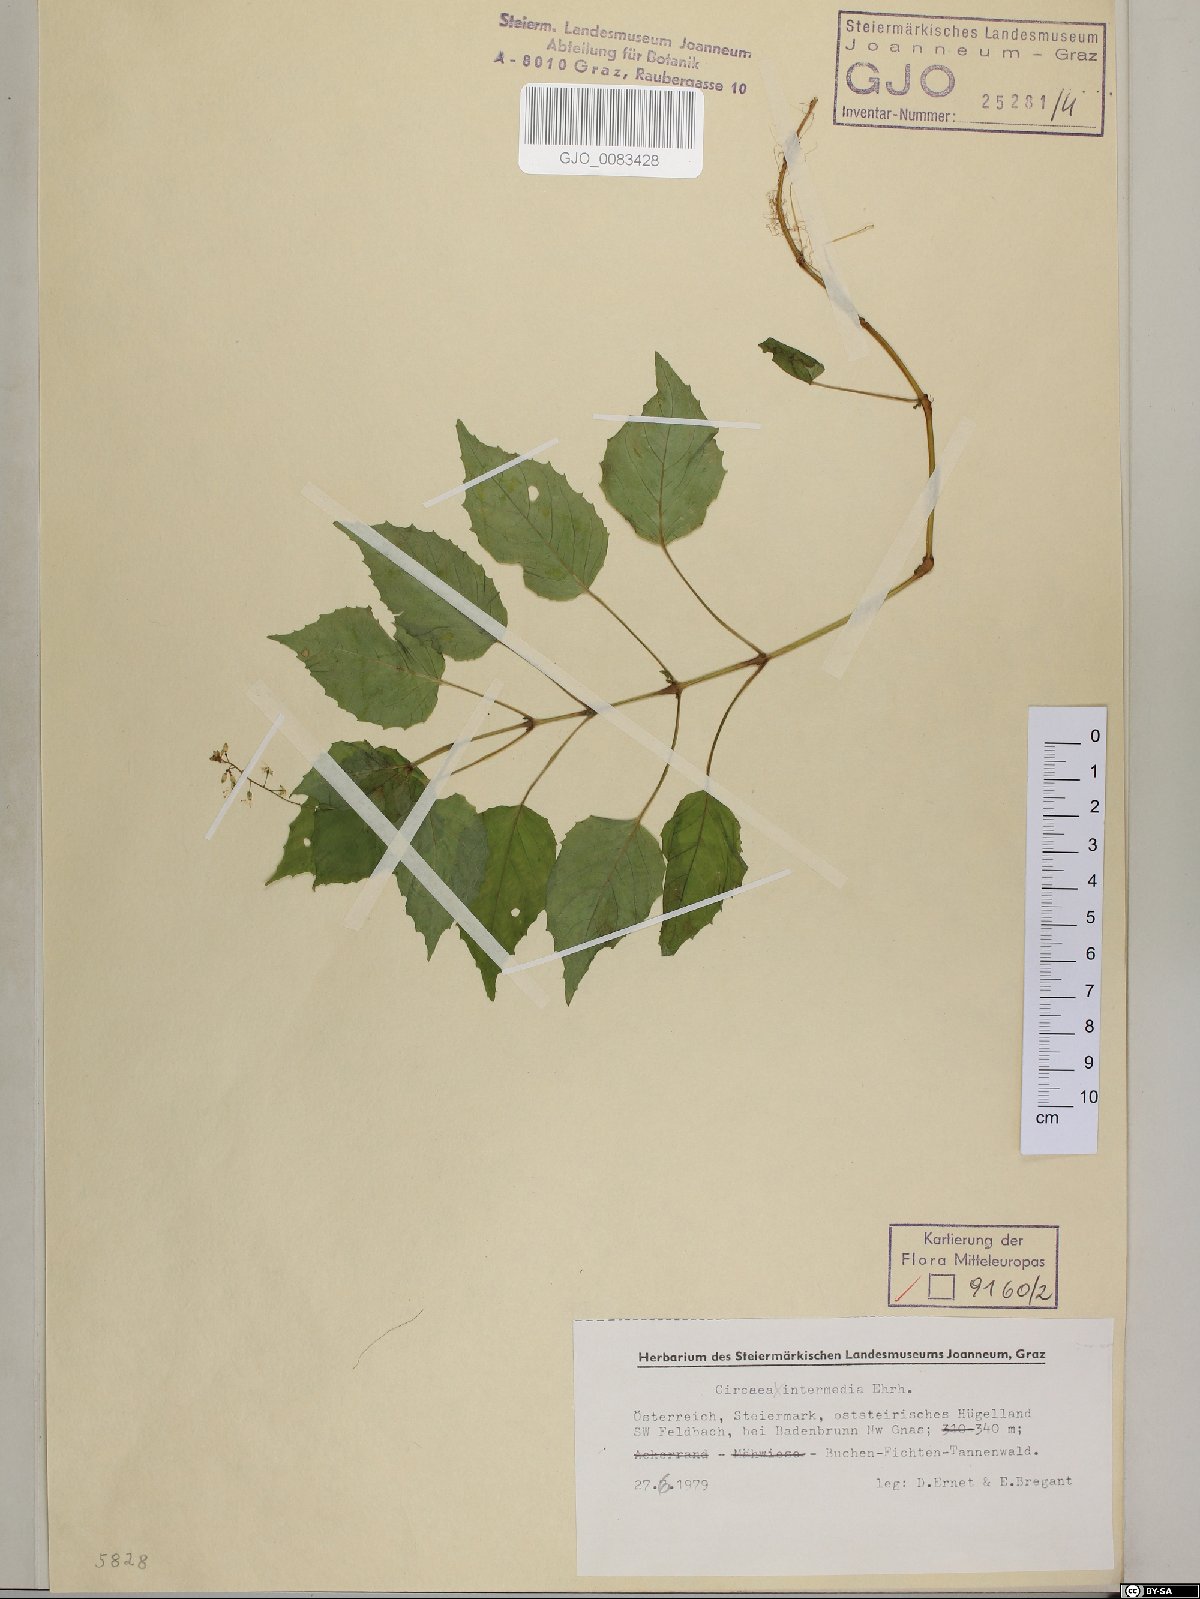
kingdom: Plantae
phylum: Tracheophyta
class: Magnoliopsida
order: Myrtales
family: Onagraceae
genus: Circaea
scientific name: Circaea intermedia
